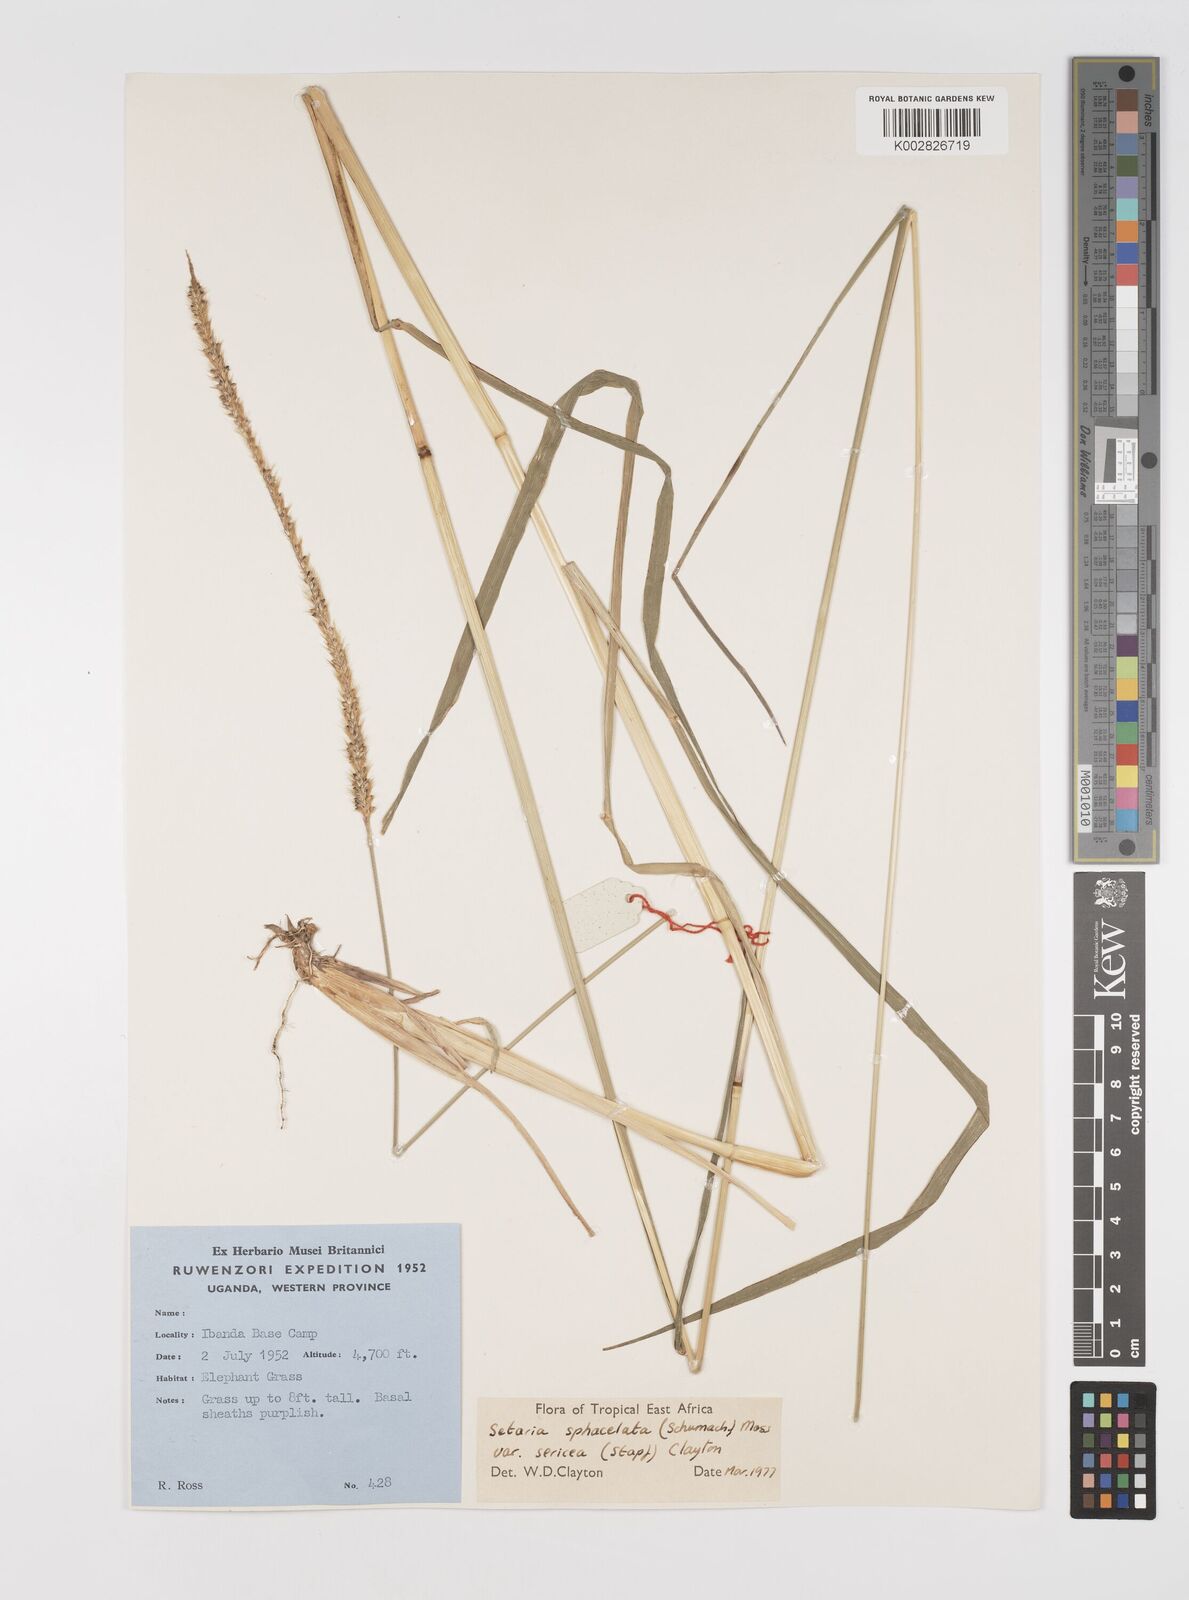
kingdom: Plantae
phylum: Tracheophyta
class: Liliopsida
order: Poales
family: Poaceae
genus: Setaria
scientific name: Setaria sphacelata
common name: African bristlegrass
